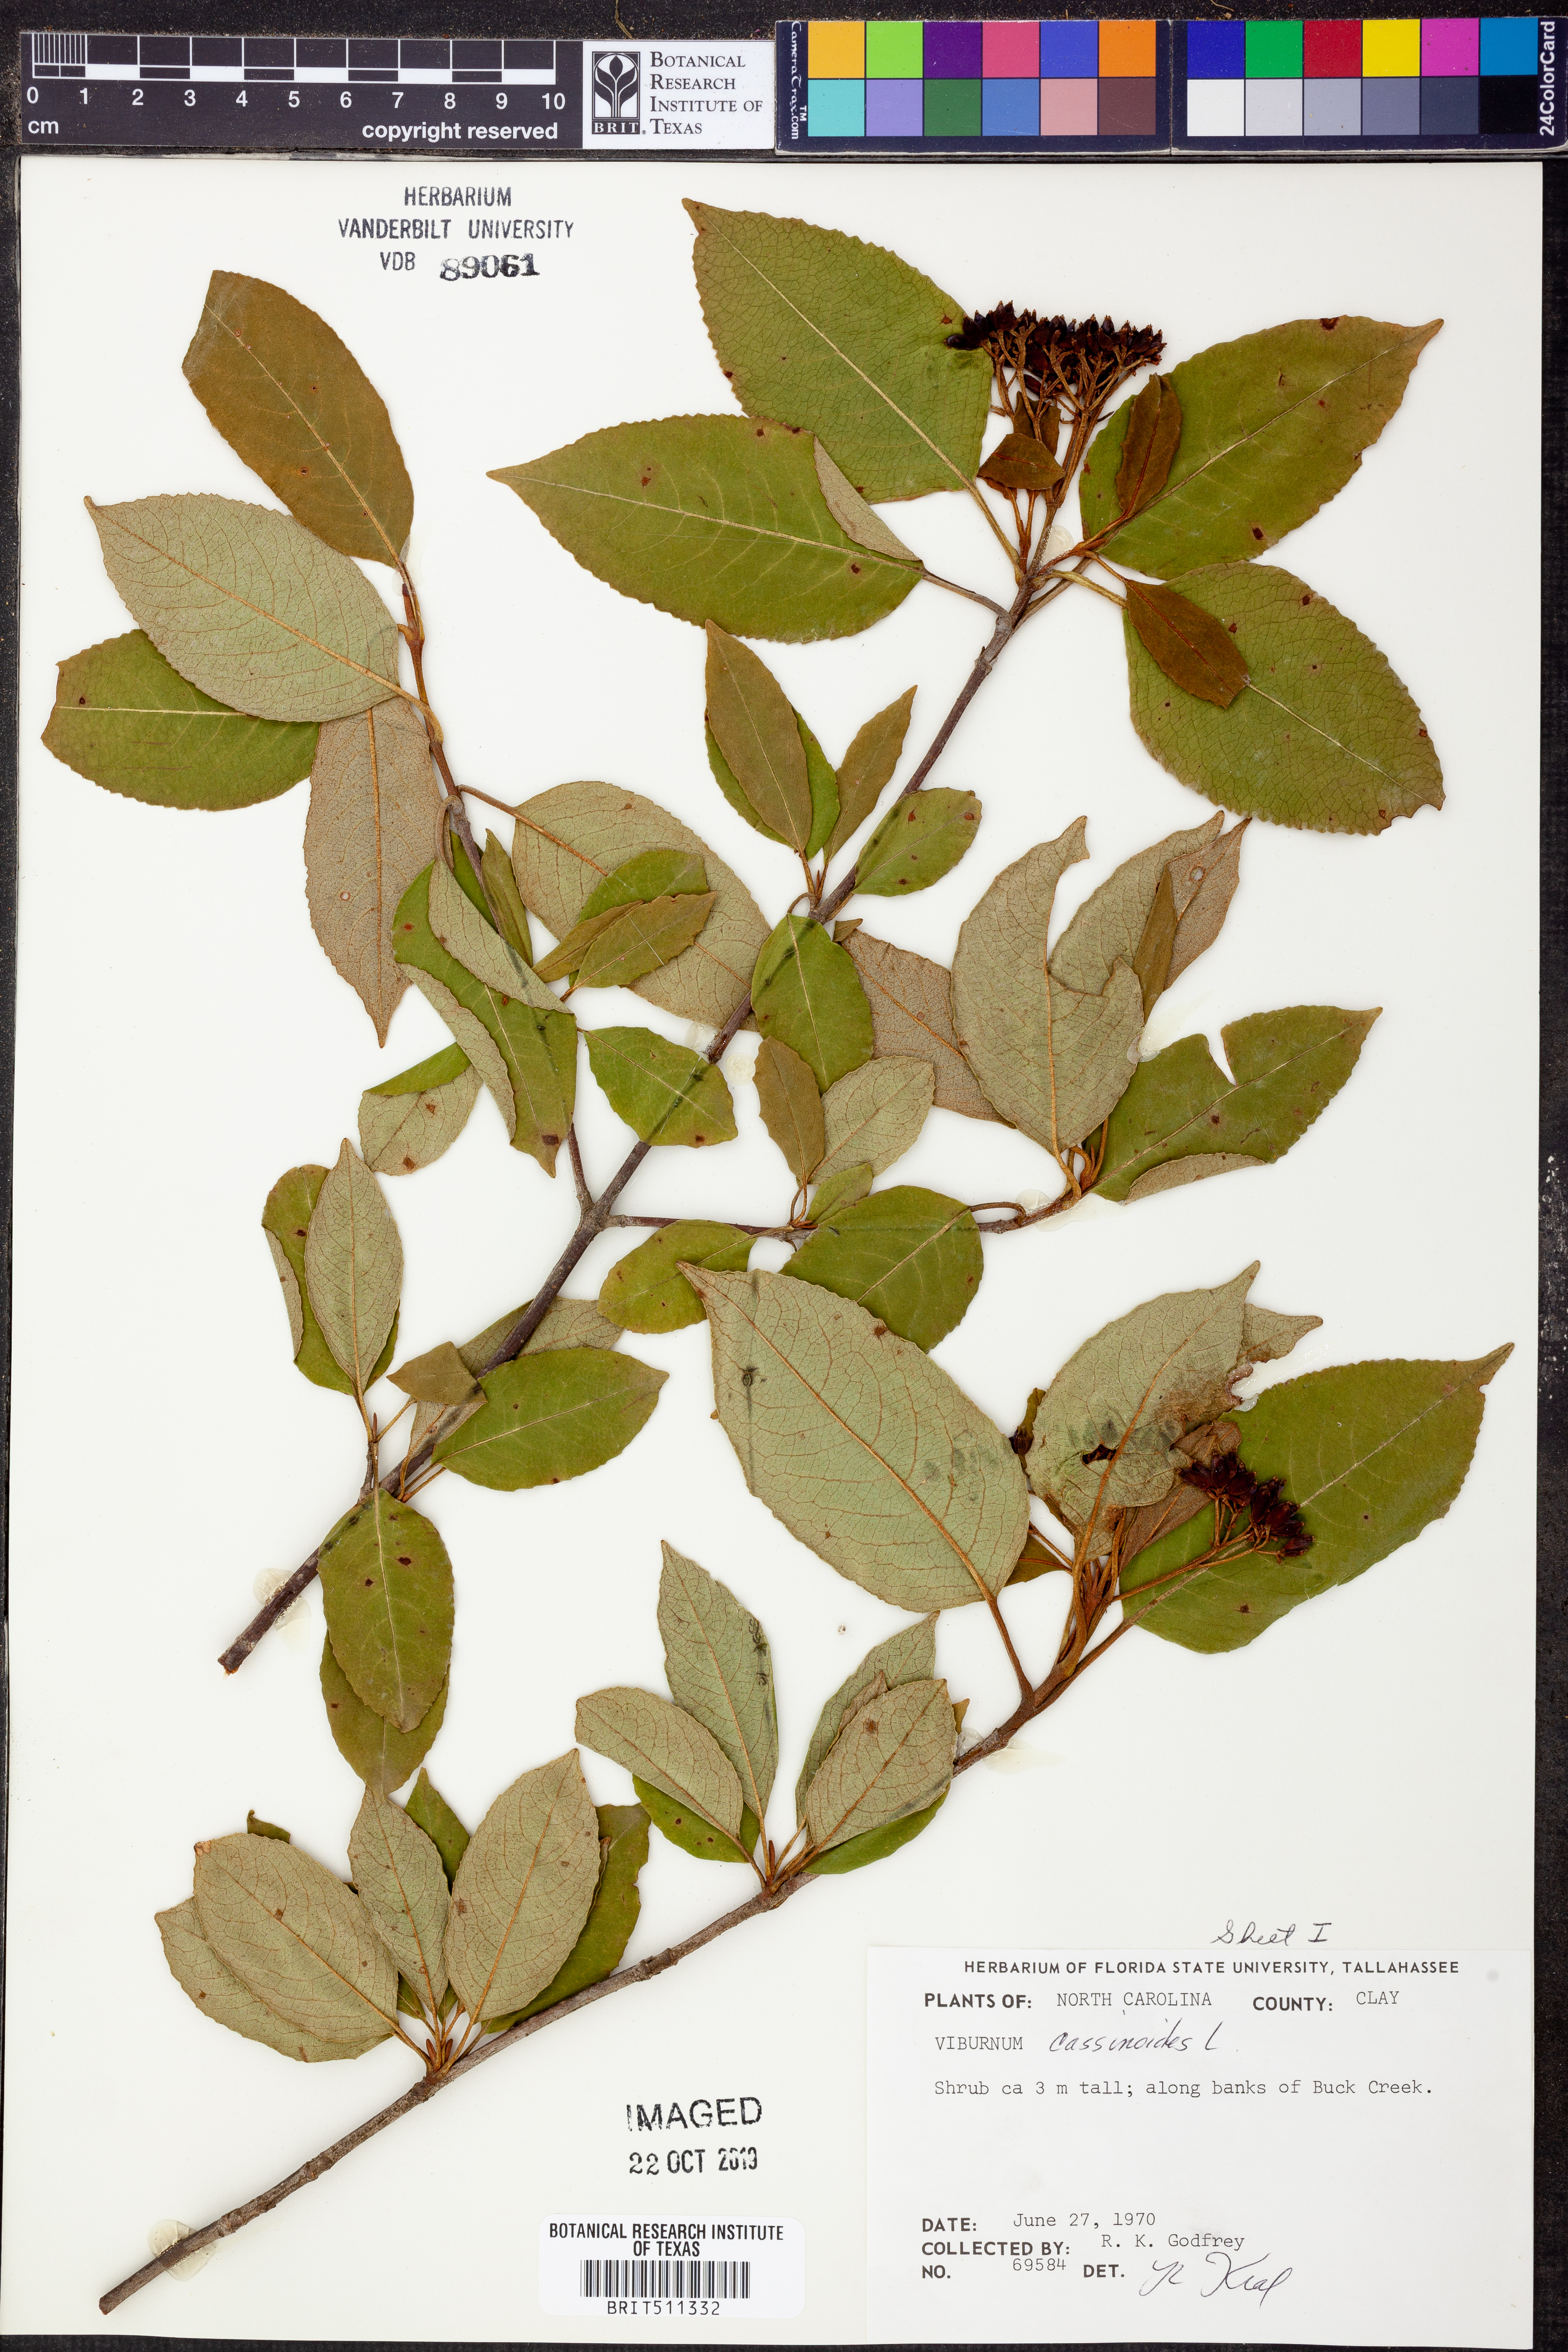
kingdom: Plantae
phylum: Tracheophyta
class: Magnoliopsida
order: Dipsacales
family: Viburnaceae
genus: Viburnum
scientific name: Viburnum cassinoides
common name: Swamp haw
